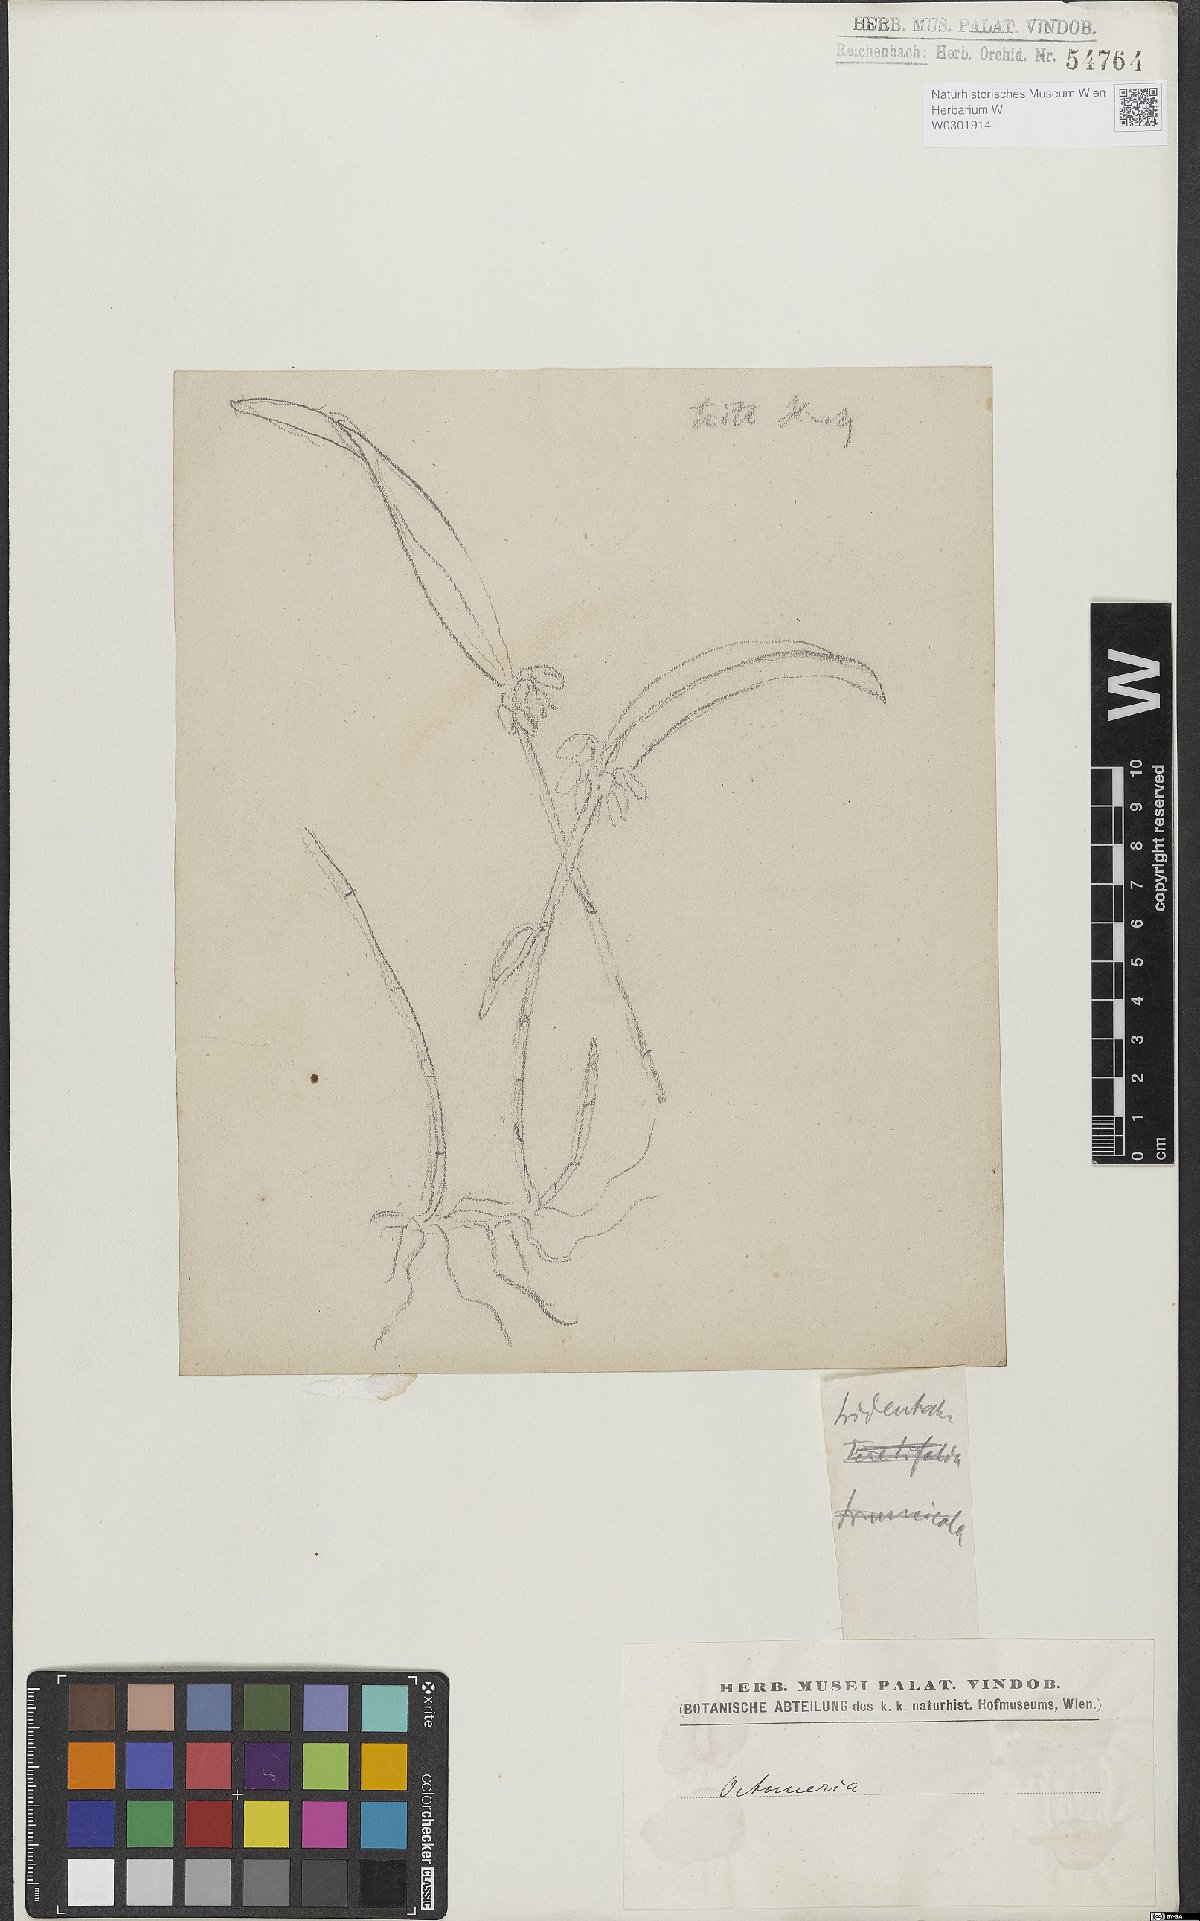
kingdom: Plantae
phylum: Tracheophyta
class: Liliopsida
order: Asparagales
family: Orchidaceae
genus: Octomeria
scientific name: Octomeria tridentata
